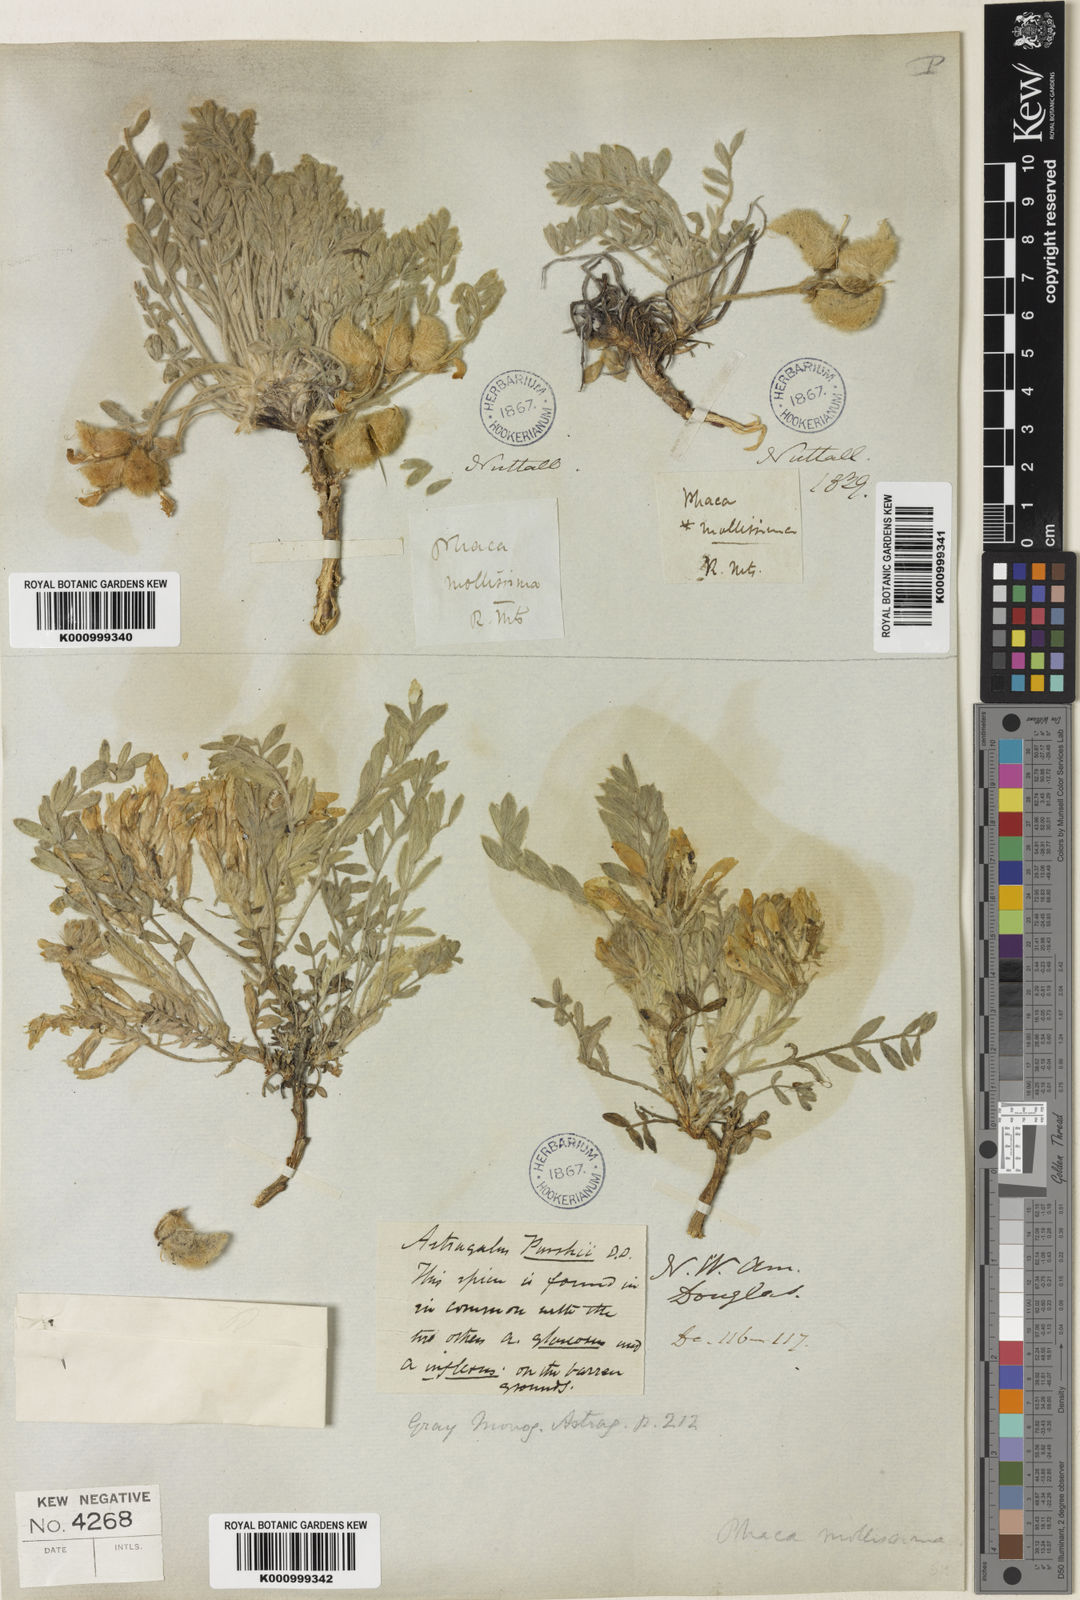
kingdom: Plantae
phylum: Tracheophyta
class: Magnoliopsida
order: Fabales
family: Fabaceae
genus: Astragalus
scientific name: Astragalus
